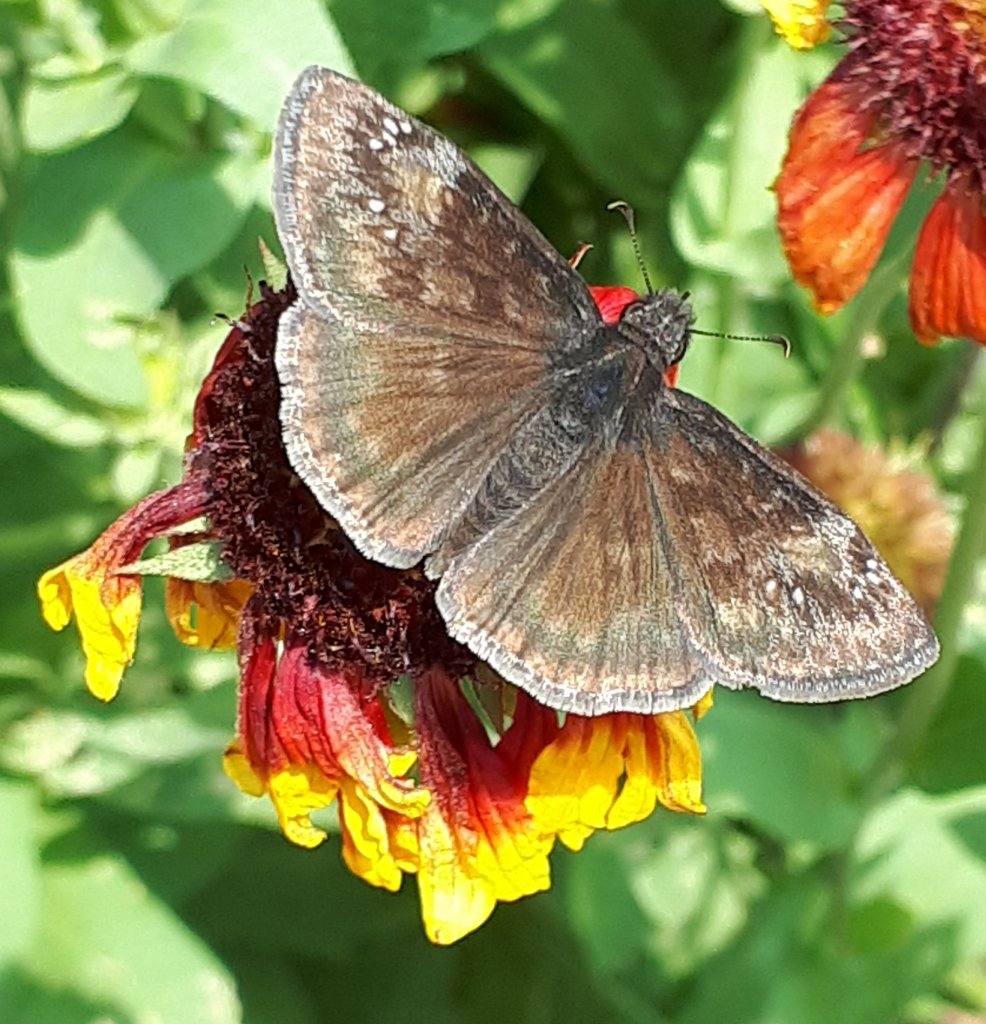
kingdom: Animalia
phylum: Arthropoda
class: Insecta
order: Lepidoptera
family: Hesperiidae
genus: Gesta
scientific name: Gesta
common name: Wild Indigo Duskywing
